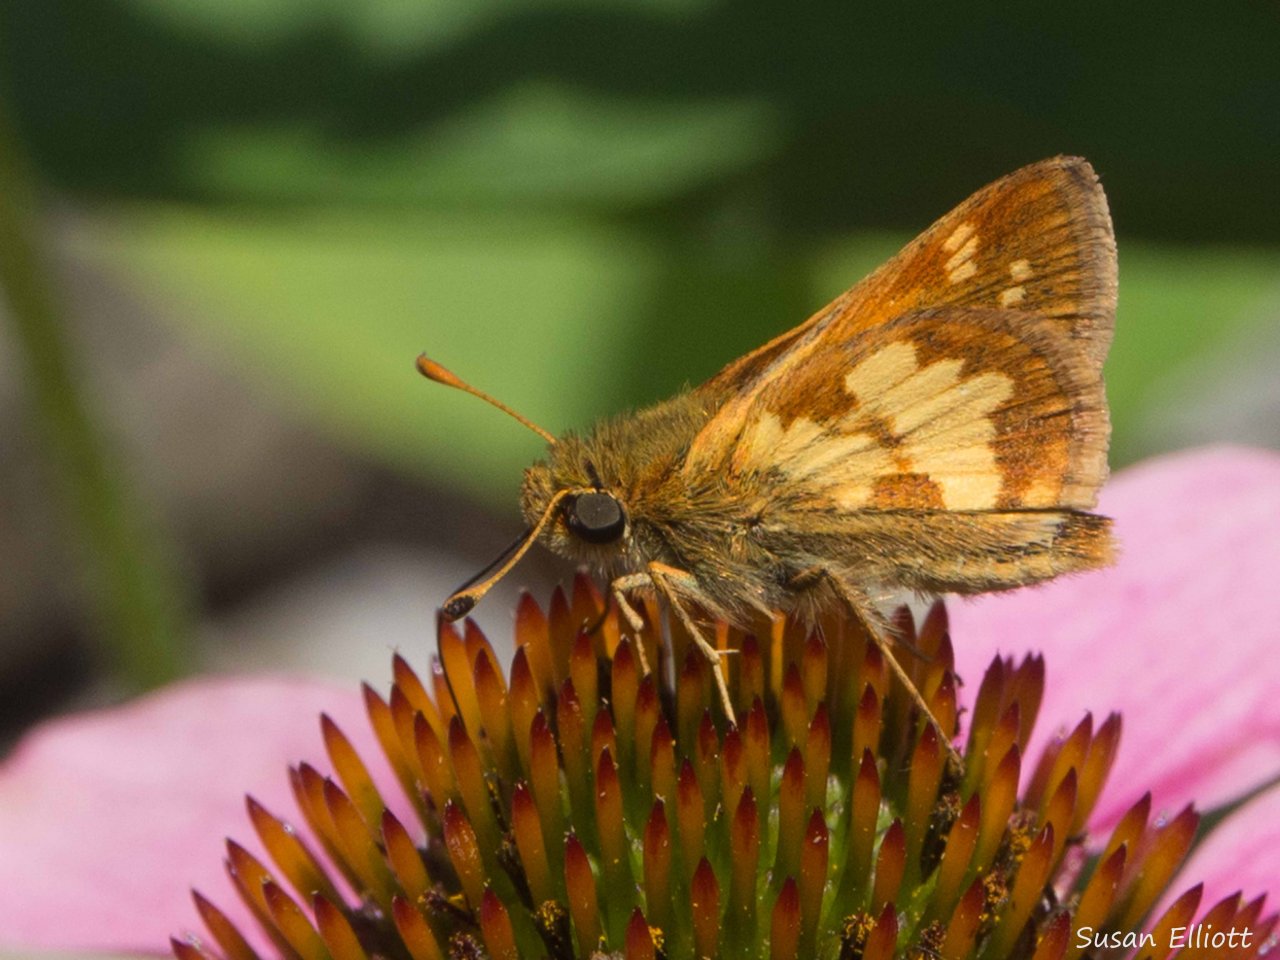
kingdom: Animalia
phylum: Arthropoda
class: Insecta
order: Lepidoptera
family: Hesperiidae
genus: Polites
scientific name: Polites coras
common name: Peck's Skipper
